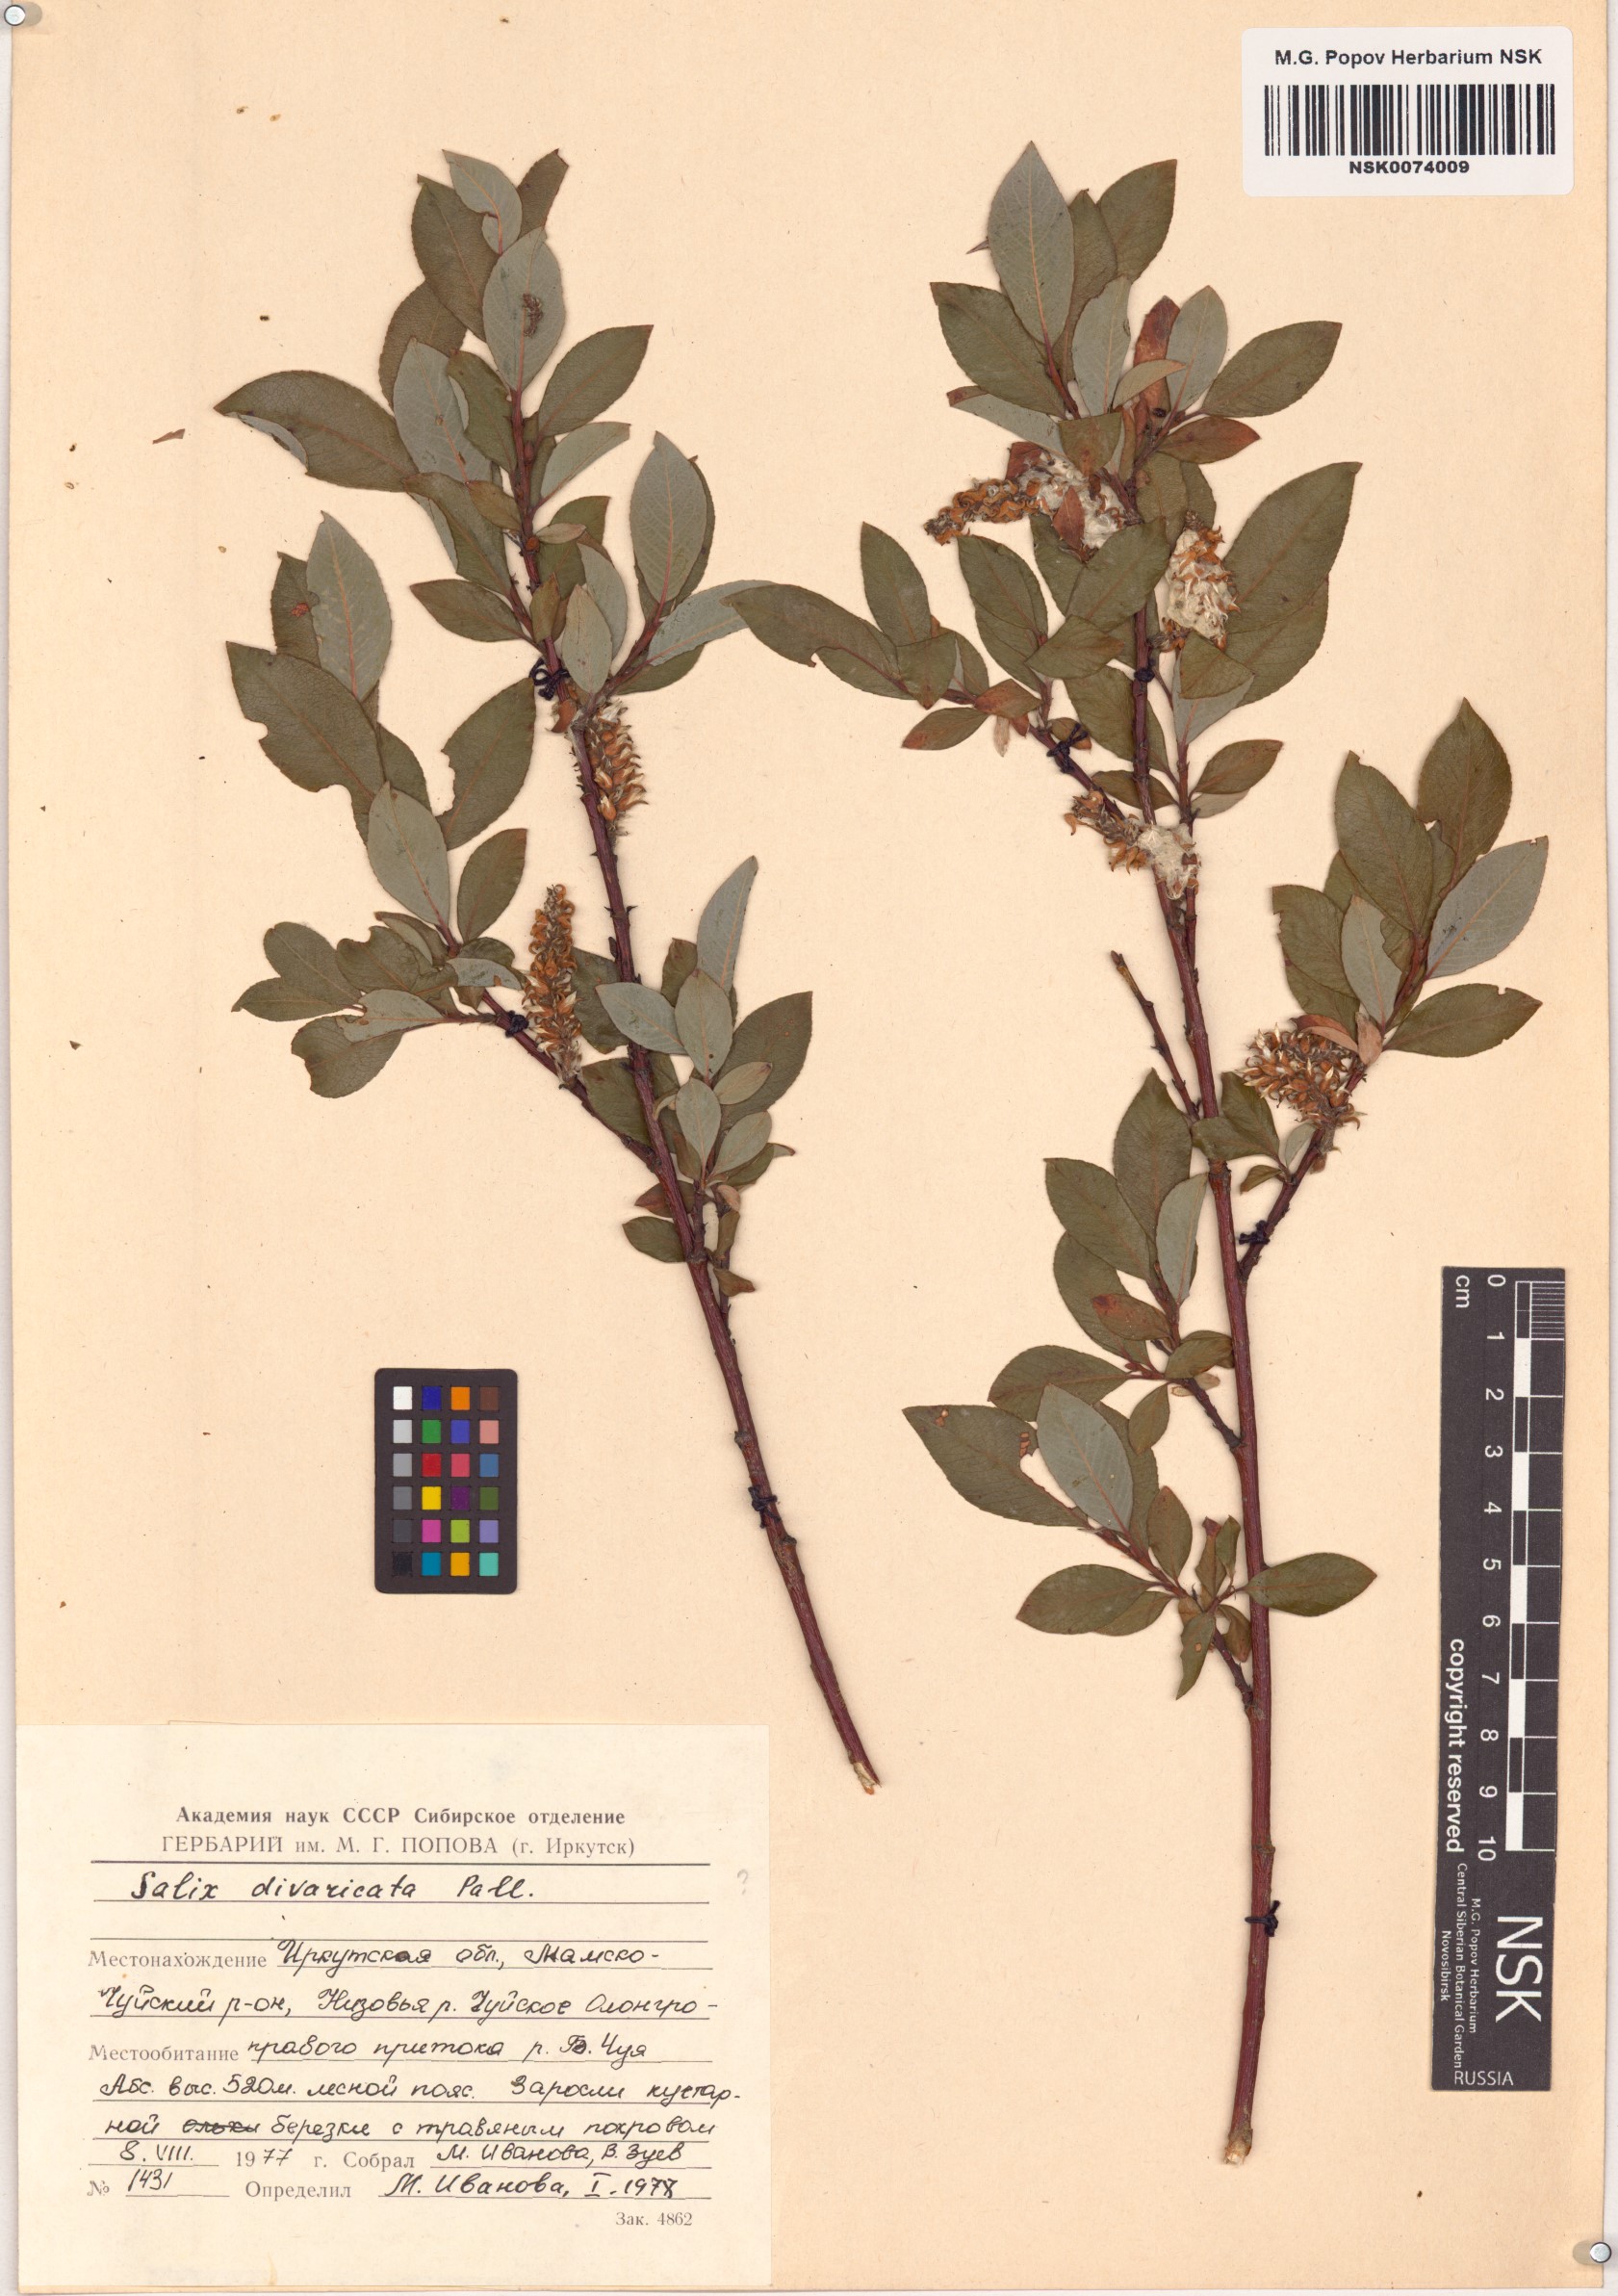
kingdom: Plantae
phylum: Tracheophyta
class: Magnoliopsida
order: Malpighiales
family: Salicaceae
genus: Salix
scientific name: Salix divaricata
